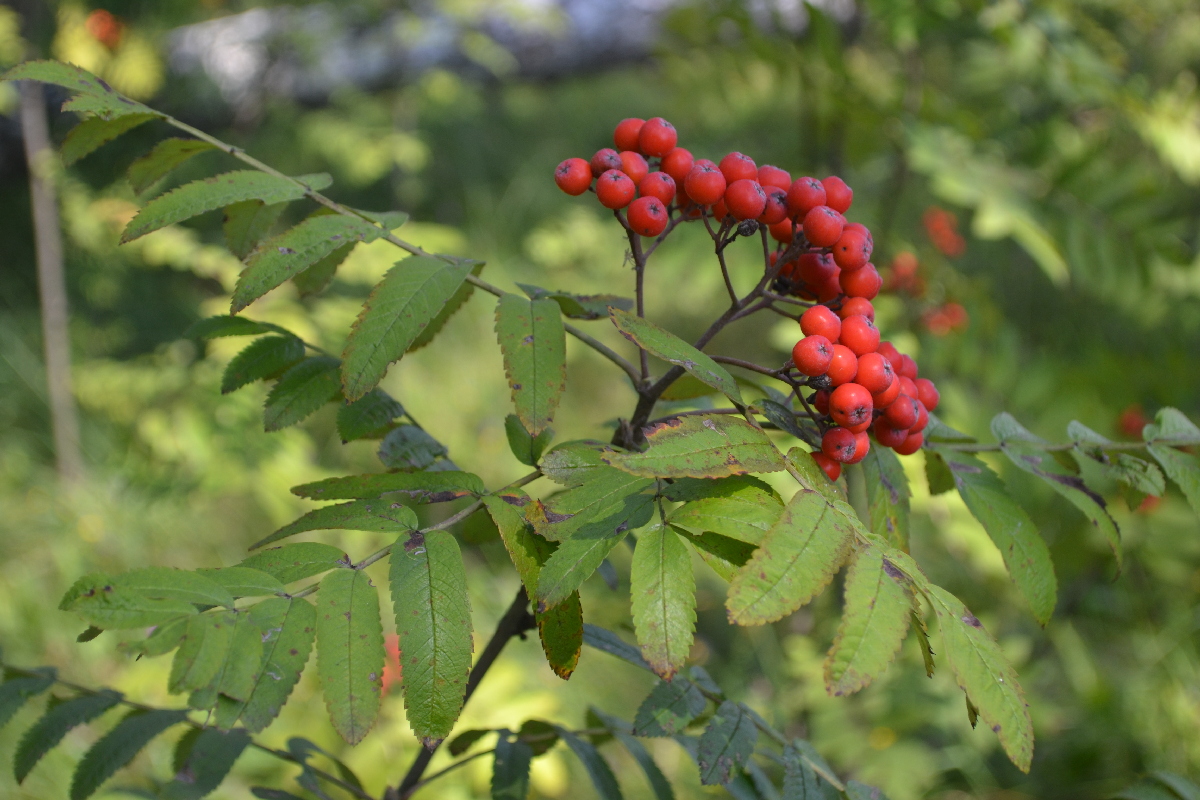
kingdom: Plantae
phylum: Tracheophyta
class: Magnoliopsida
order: Rosales
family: Rosaceae
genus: Sorbus
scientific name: Sorbus aucuparia
